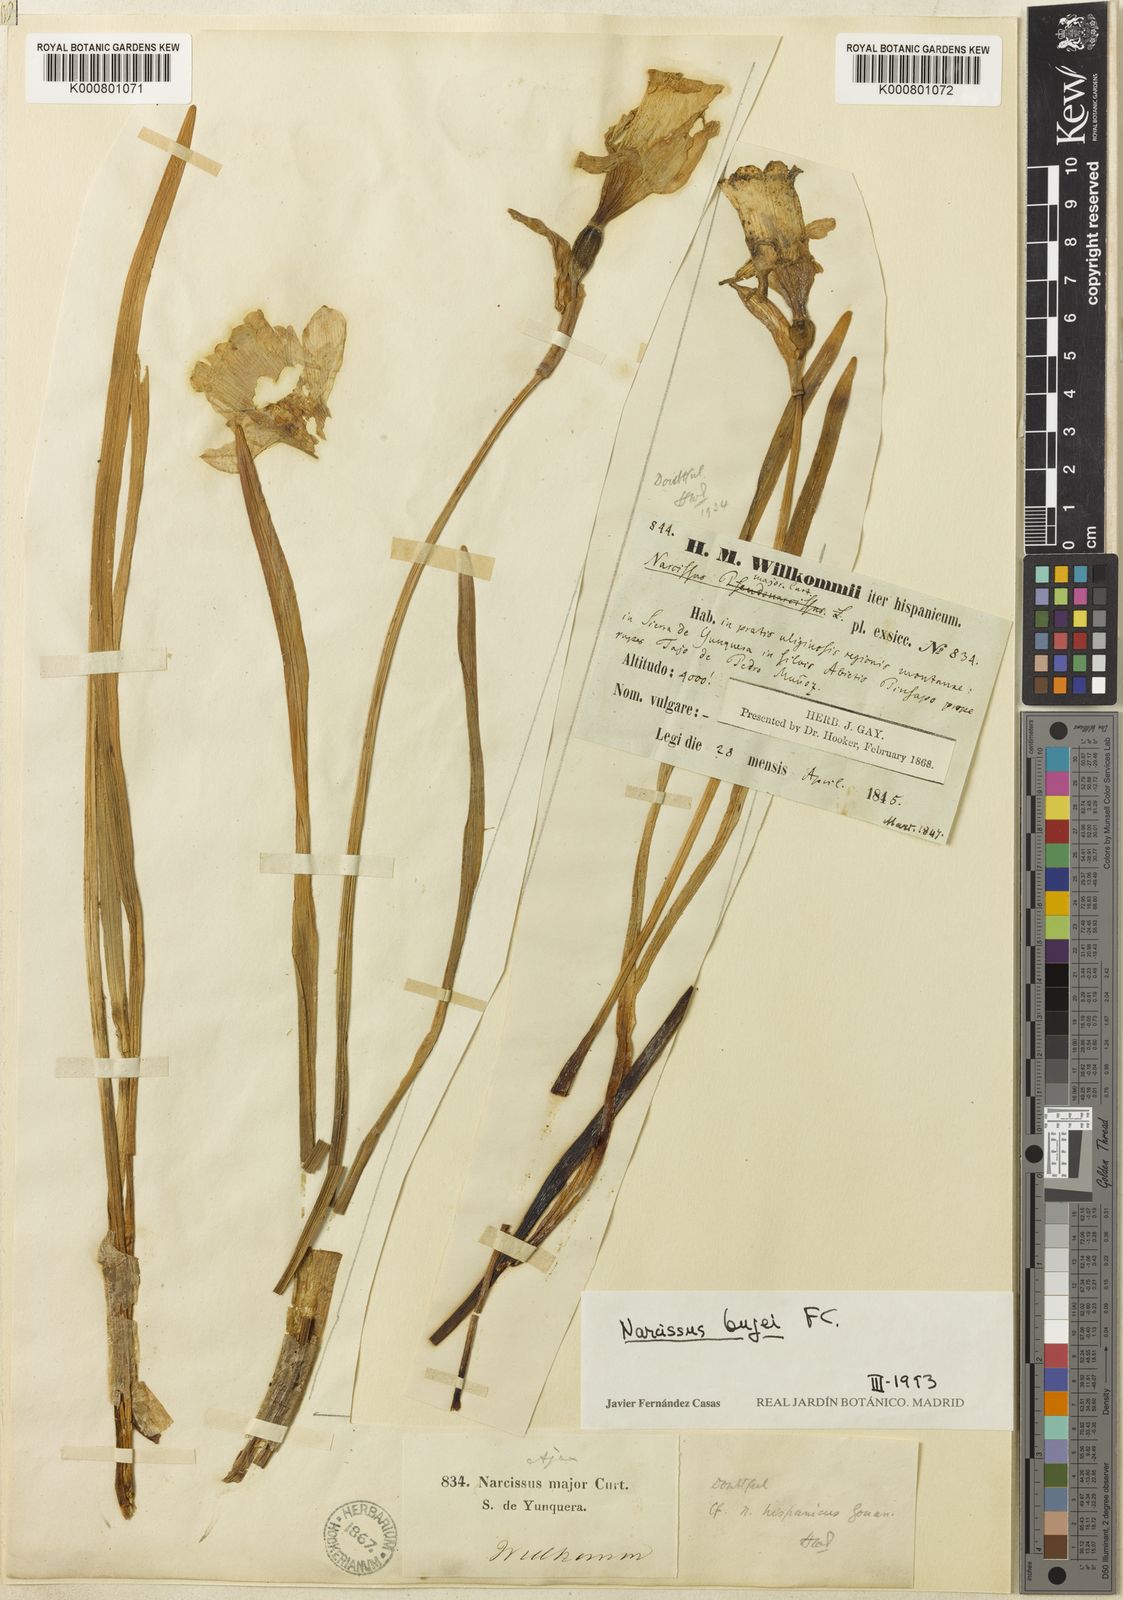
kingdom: Plantae
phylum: Tracheophyta
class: Liliopsida
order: Asparagales
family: Amaryllidaceae
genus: Narcissus
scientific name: Narcissus bujei
